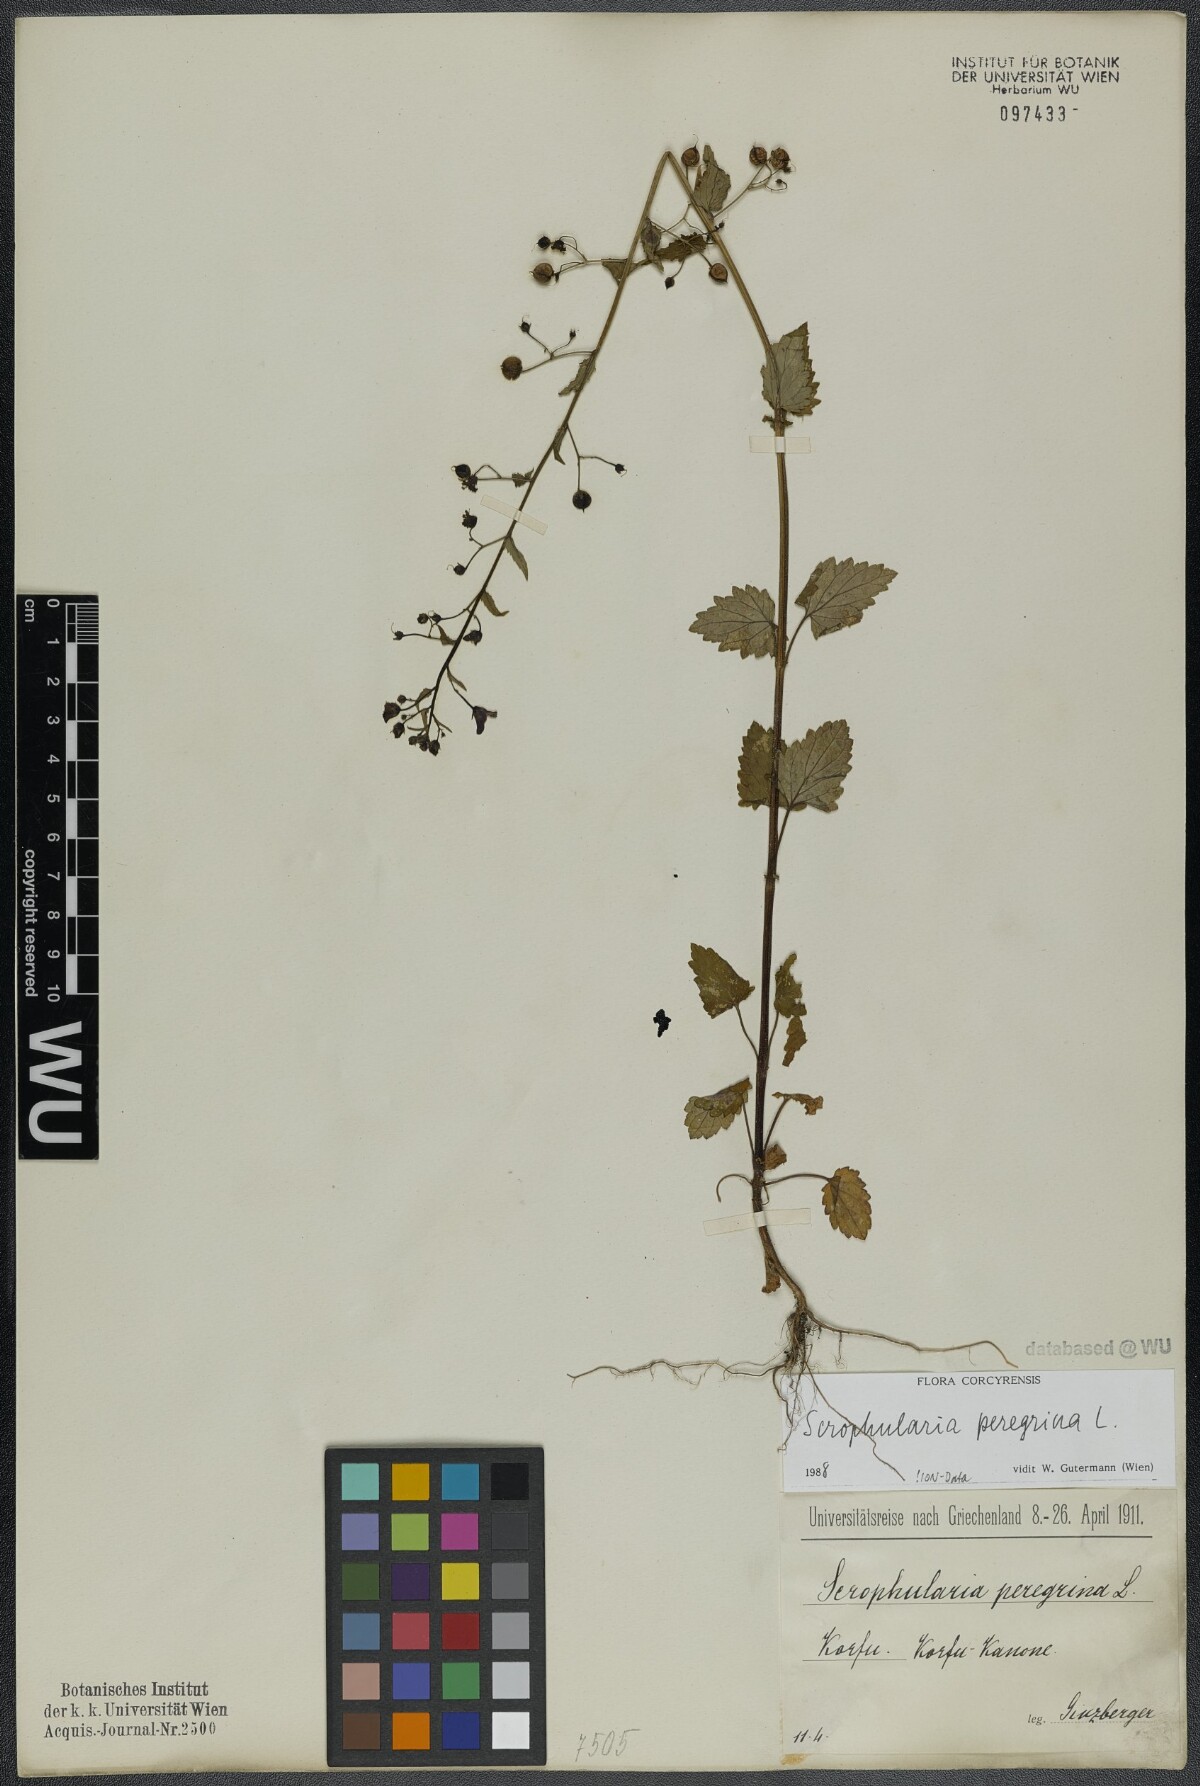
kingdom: Plantae
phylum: Tracheophyta
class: Magnoliopsida
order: Lamiales
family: Scrophulariaceae
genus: Scrophularia
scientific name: Scrophularia peregrina
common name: Mediterranean figwort
